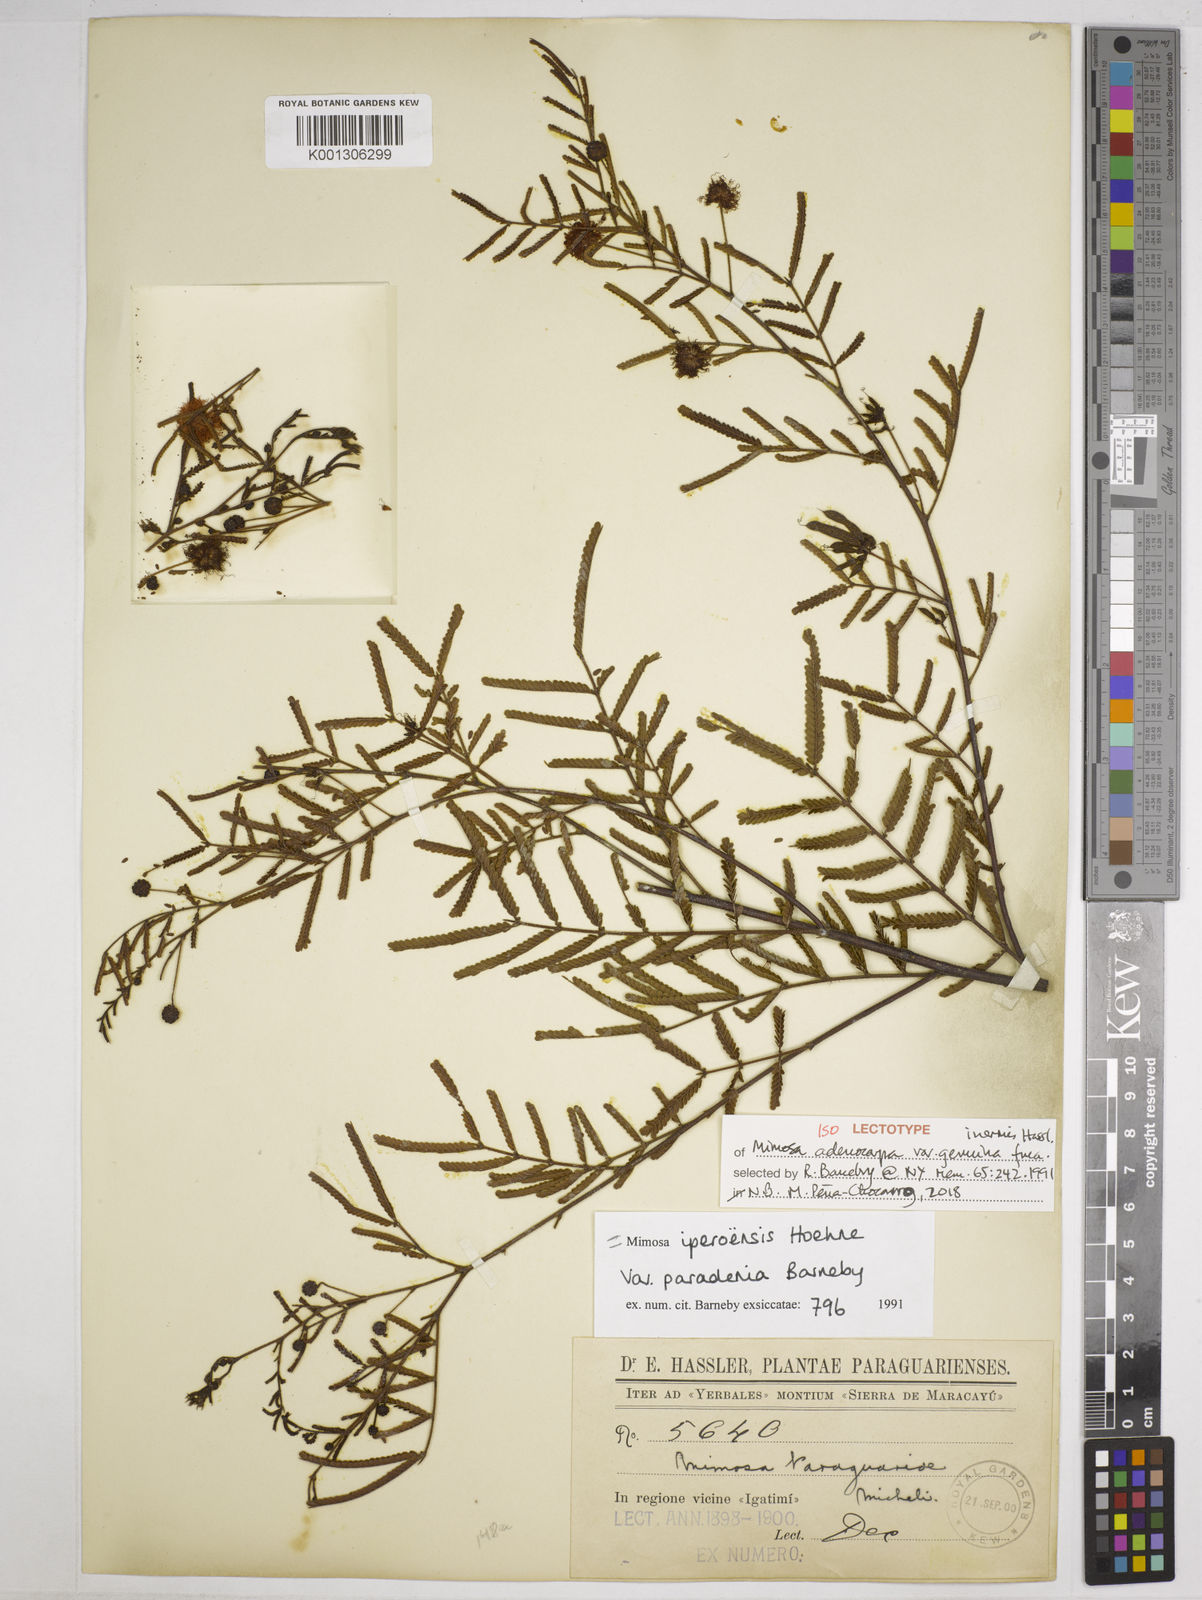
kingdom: Plantae
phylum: Tracheophyta
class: Magnoliopsida
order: Fabales
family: Fabaceae
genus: Mimosa
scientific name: Mimosa iperoensis
